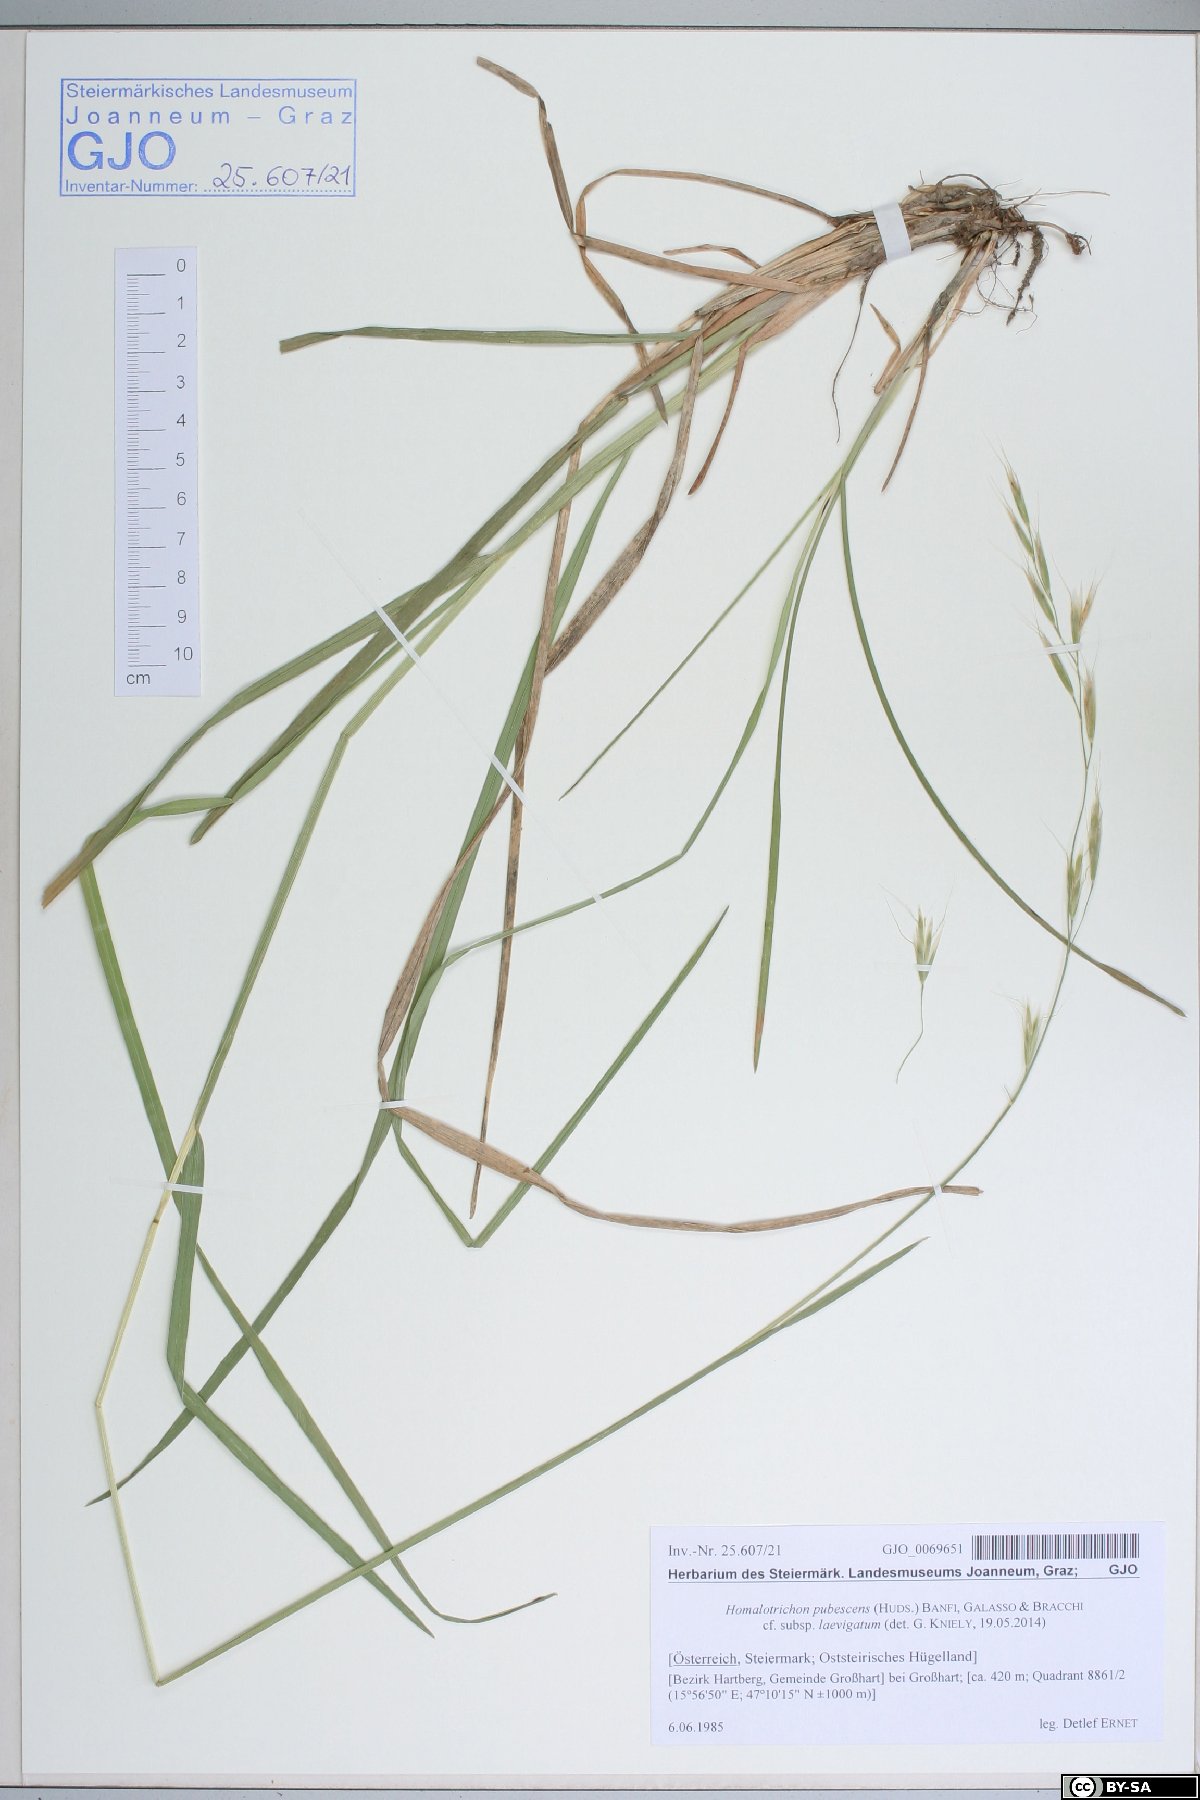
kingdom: Plantae
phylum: Tracheophyta
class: Liliopsida
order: Poales
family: Poaceae
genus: Avenula
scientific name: Avenula pubescens
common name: Downy alpine oatgrass
